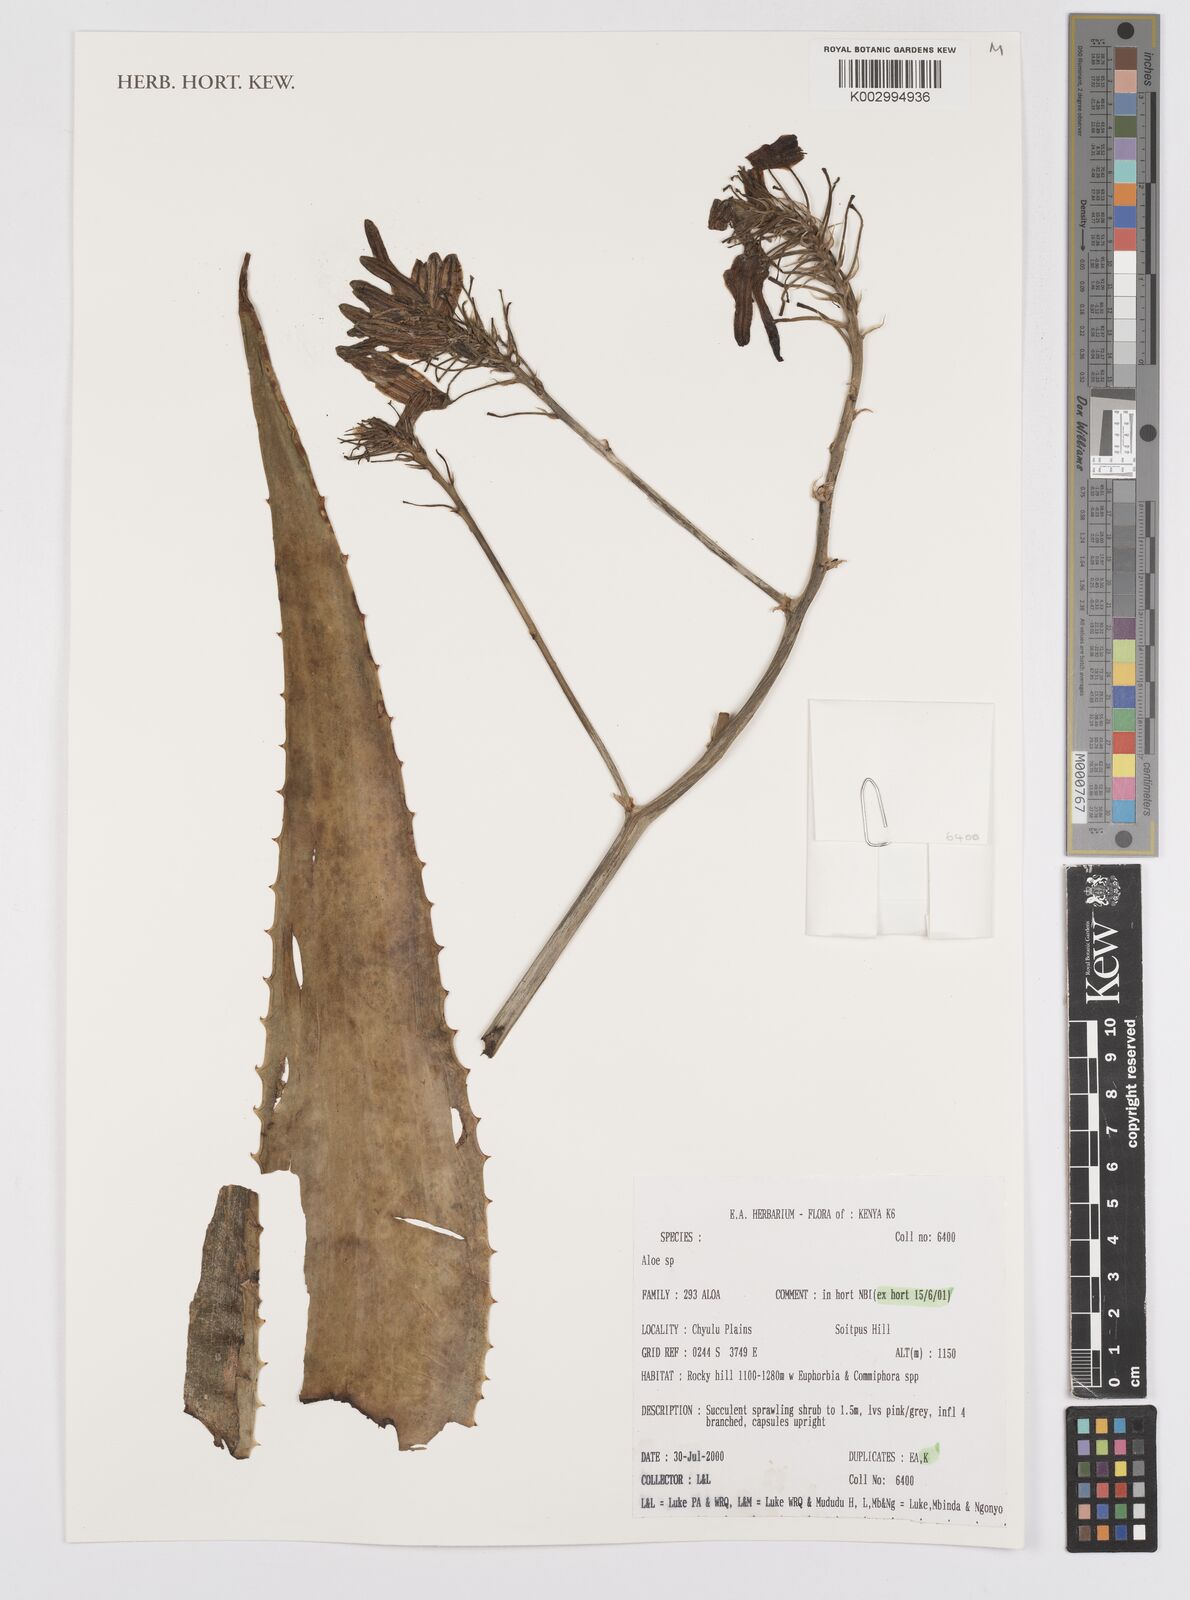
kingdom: Plantae
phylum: Tracheophyta
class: Liliopsida
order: Asparagales
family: Asphodelaceae
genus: Aloe
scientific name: Aloe
